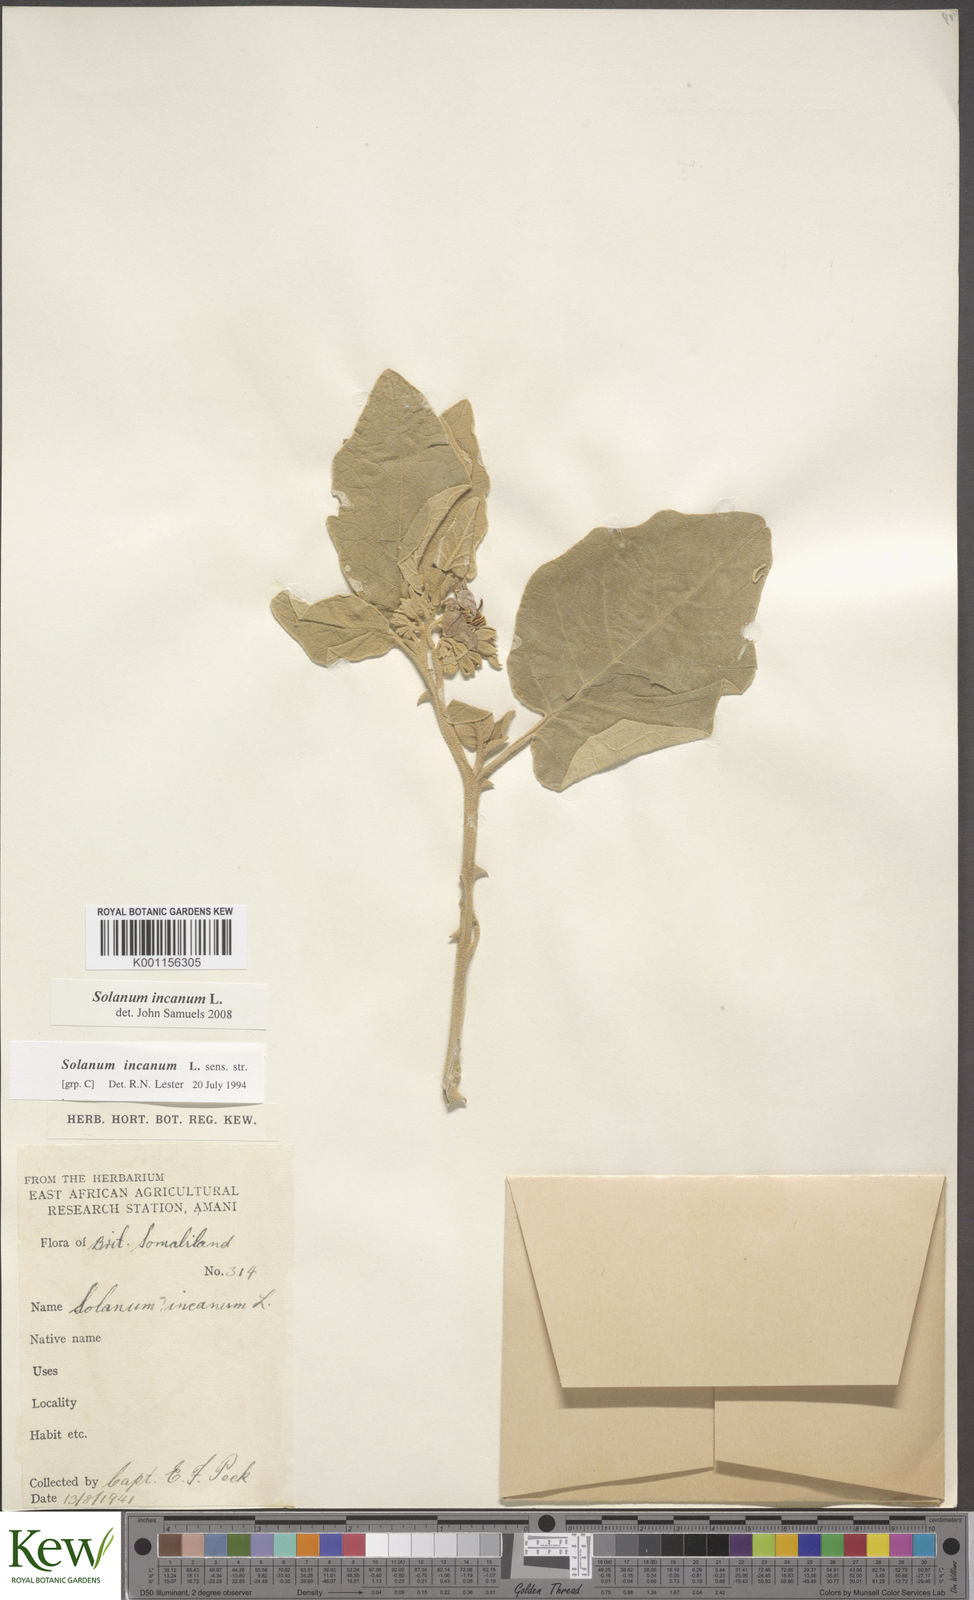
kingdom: Plantae
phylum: Tracheophyta
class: Magnoliopsida
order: Solanales
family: Solanaceae
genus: Solanum
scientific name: Solanum incanum
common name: Bitter apple
